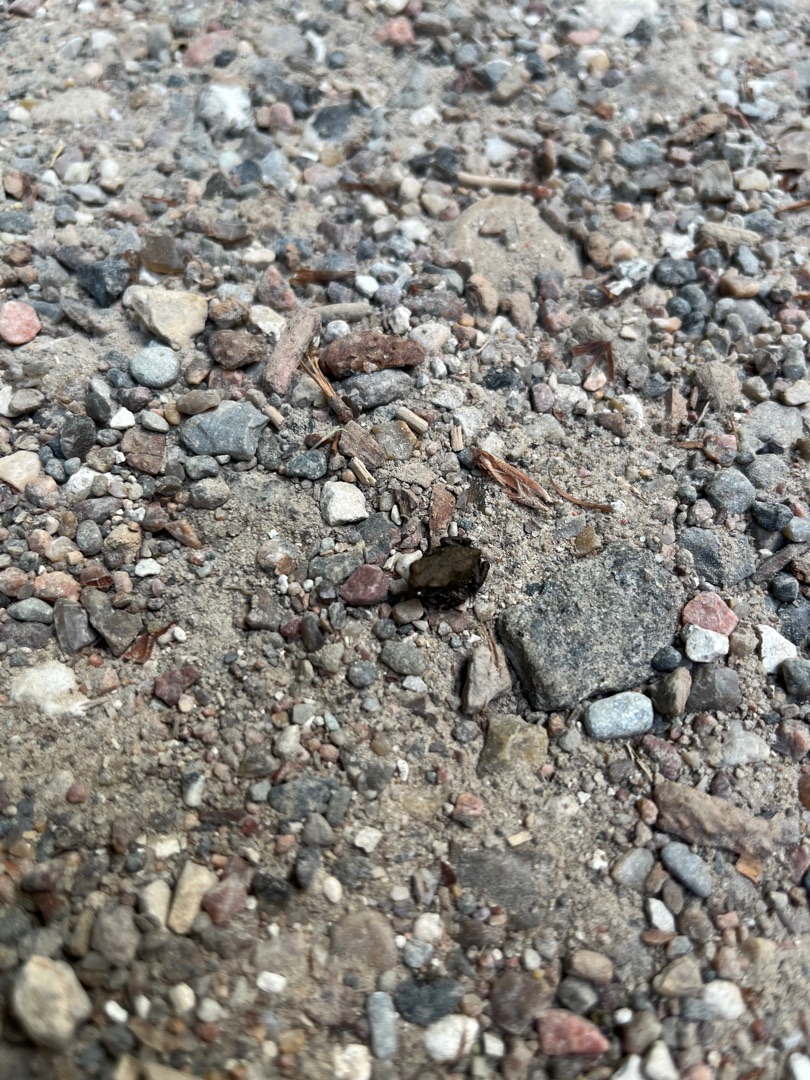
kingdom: Animalia
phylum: Chordata
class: Amphibia
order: Anura
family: Bufonidae
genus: Bufo
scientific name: Bufo bufo
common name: Skrubtudse
